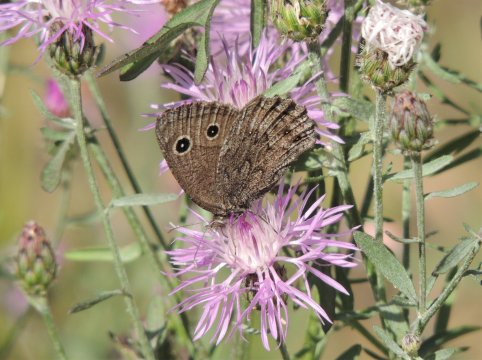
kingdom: Animalia
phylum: Arthropoda
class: Insecta
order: Lepidoptera
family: Nymphalidae
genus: Cercyonis
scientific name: Cercyonis oetus
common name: Small Wood-Nymph
